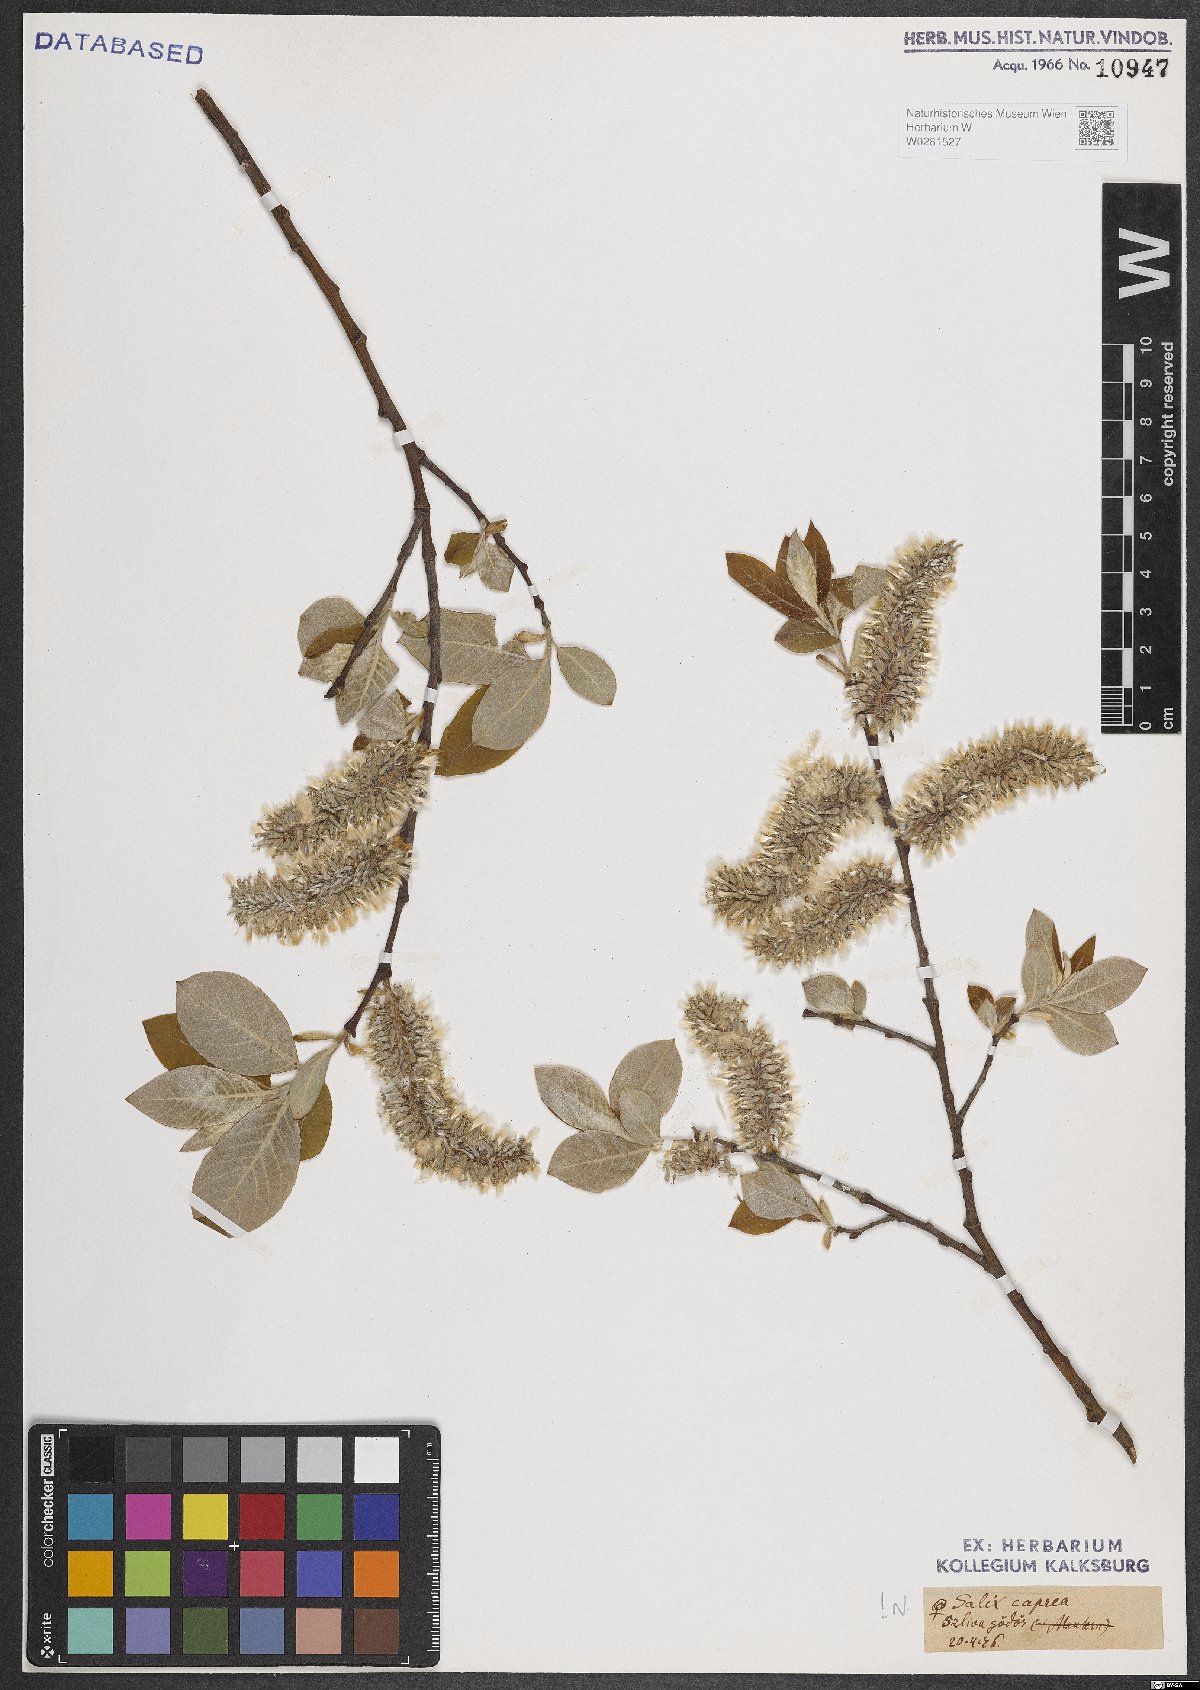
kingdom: Plantae
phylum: Tracheophyta
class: Magnoliopsida
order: Malpighiales
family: Salicaceae
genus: Salix
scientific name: Salix caprea
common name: Goat willow
